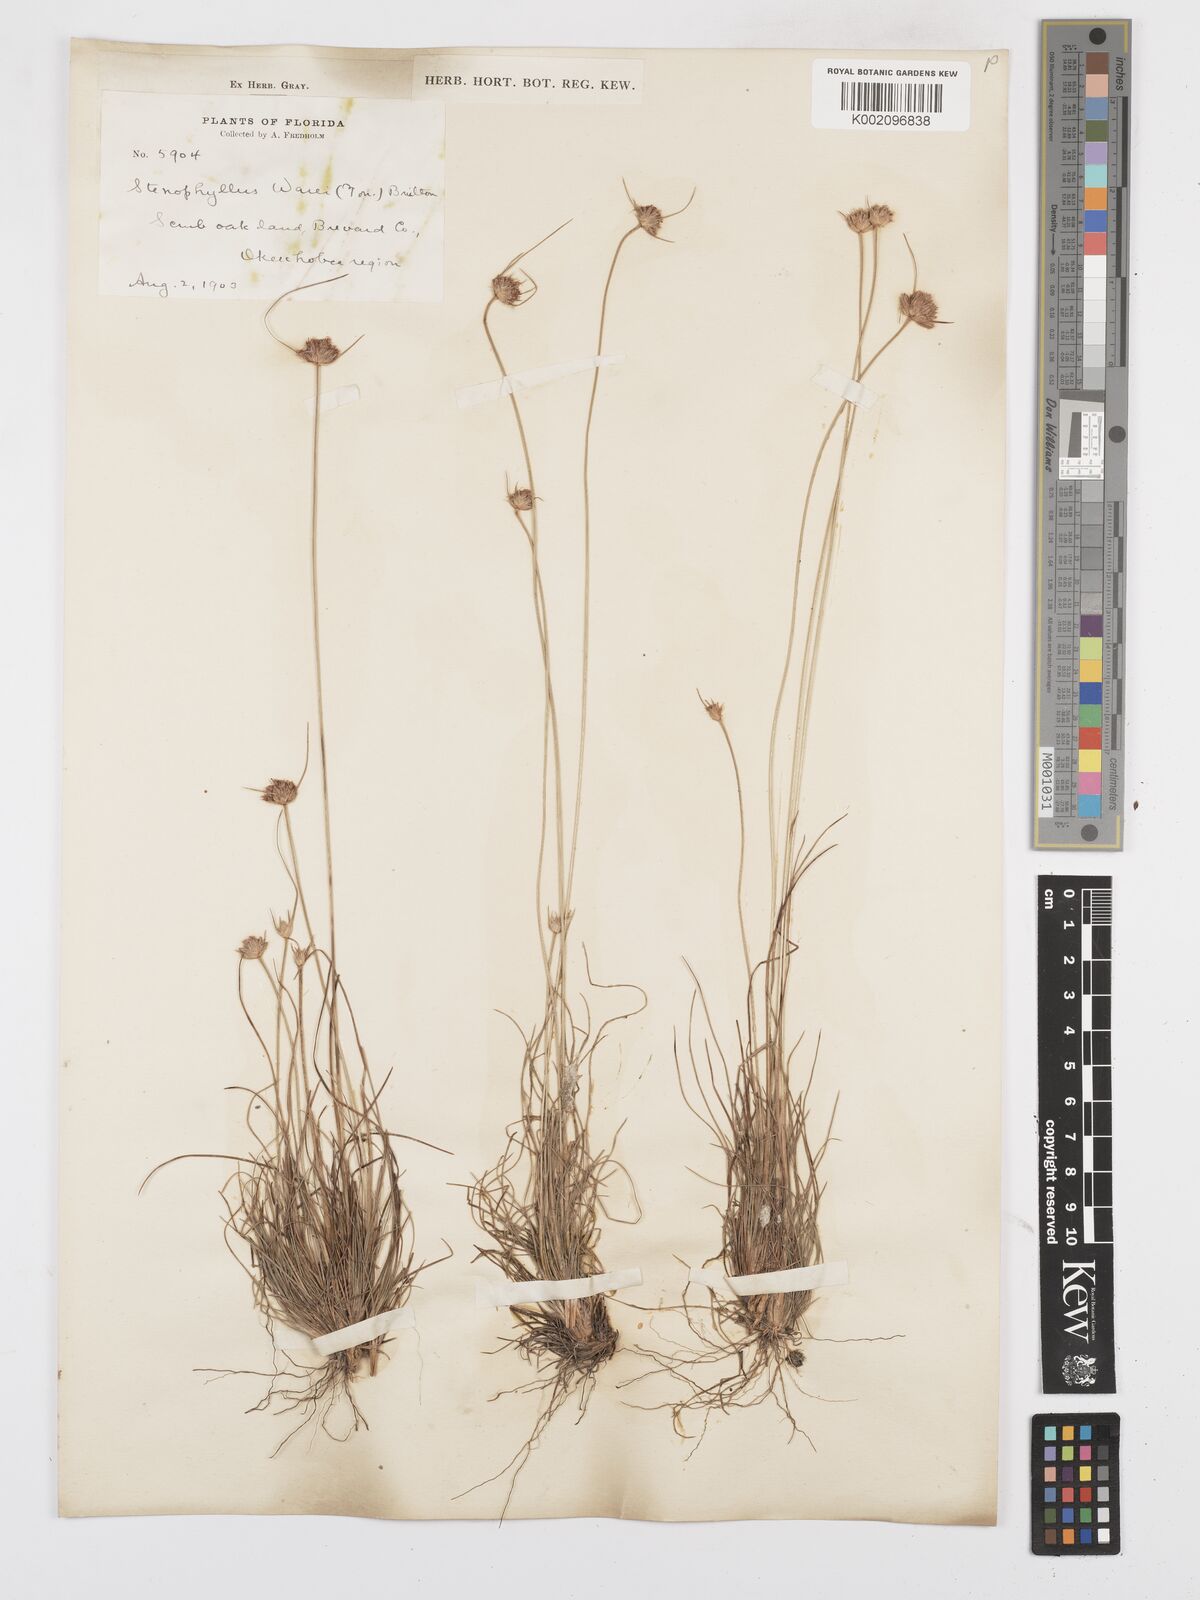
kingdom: Plantae
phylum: Tracheophyta
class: Liliopsida
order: Poales
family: Cyperaceae
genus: Bulbostylis
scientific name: Bulbostylis warei
